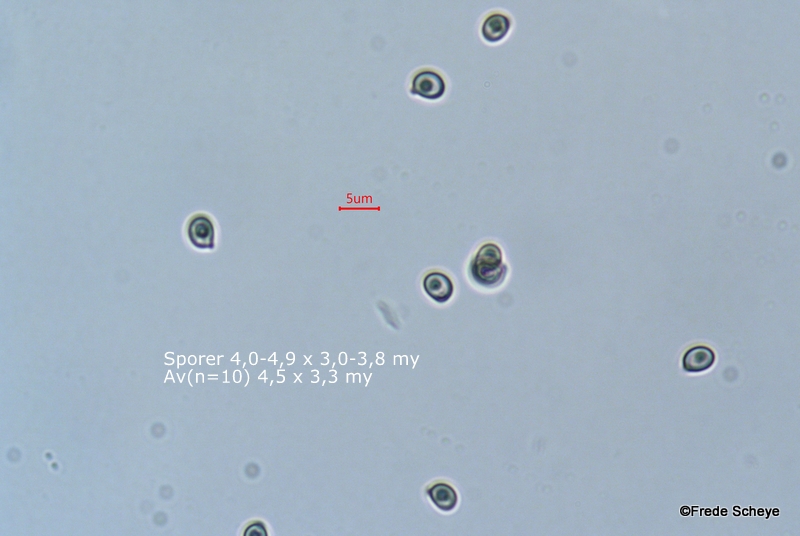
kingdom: Fungi
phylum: Basidiomycota
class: Agaricomycetes
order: Agaricales
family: Agaricaceae
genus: Agaricus
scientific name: Agaricus dulcidulus
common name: blegrød champignon
